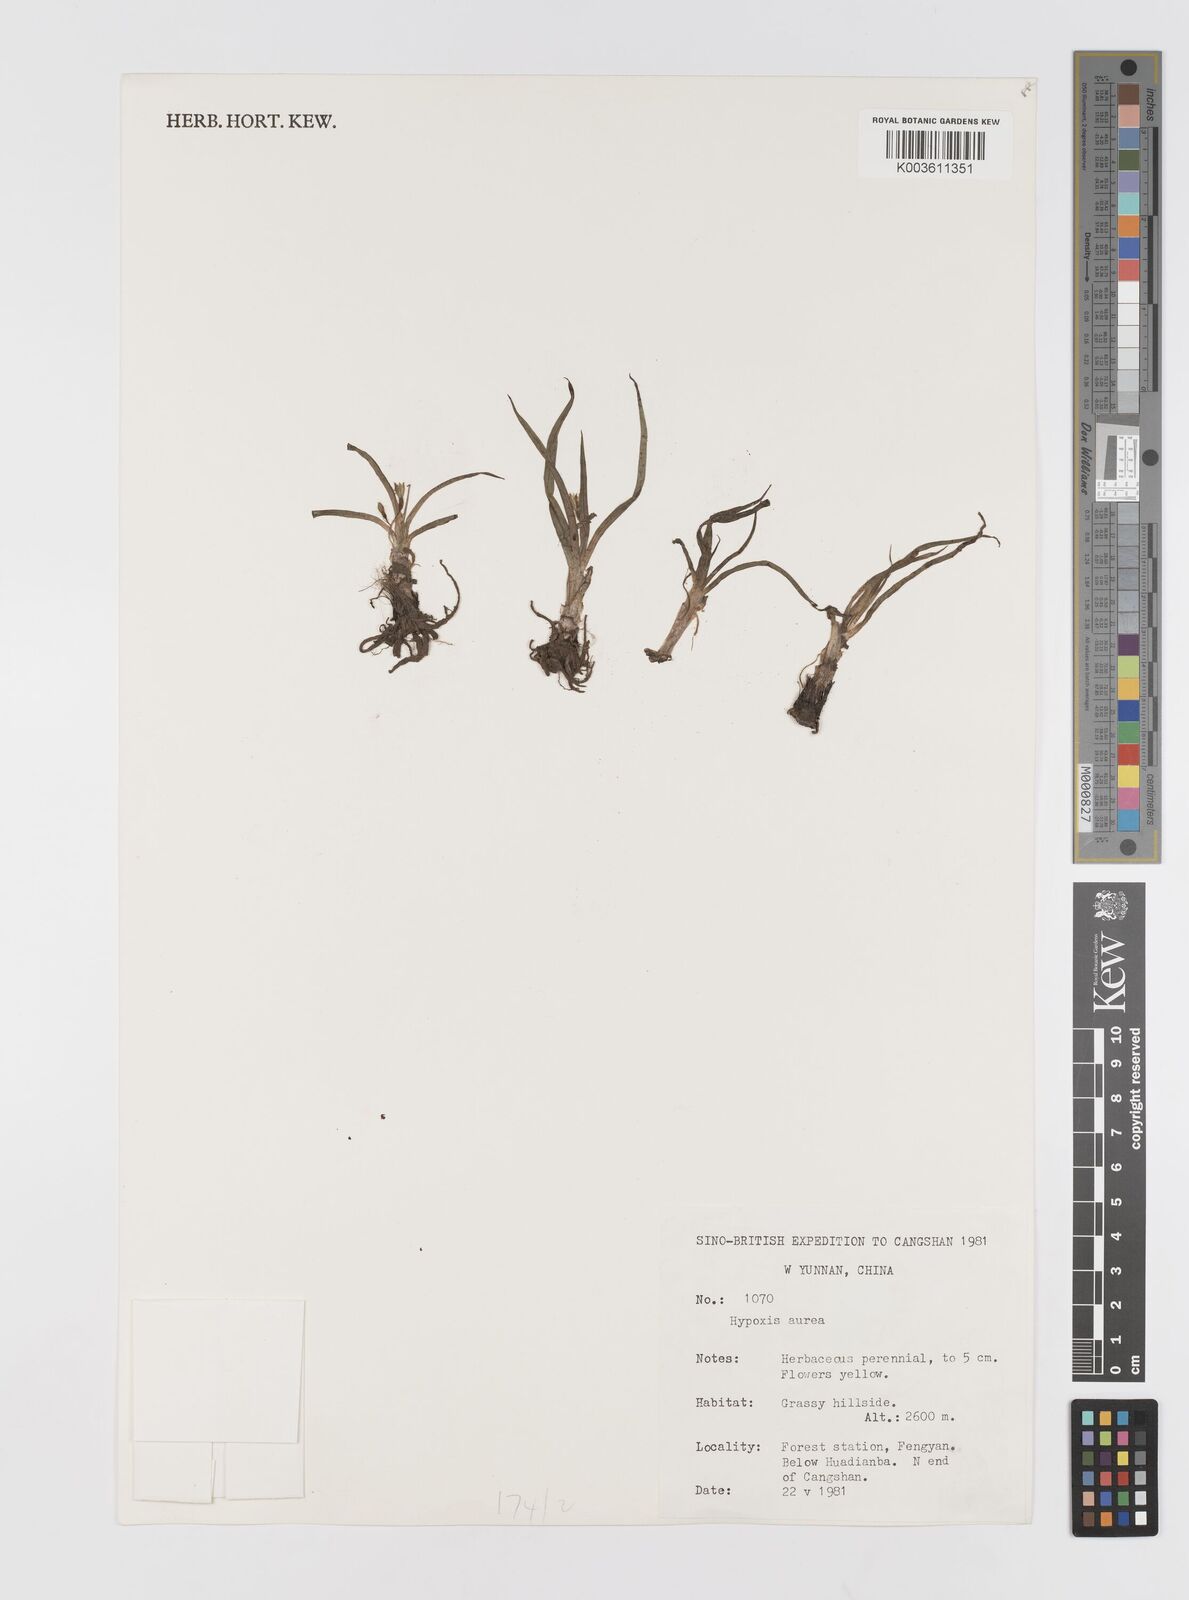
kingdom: Plantae
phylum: Tracheophyta
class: Liliopsida
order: Asparagales
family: Hypoxidaceae
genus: Hypoxis
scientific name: Hypoxis aurea
